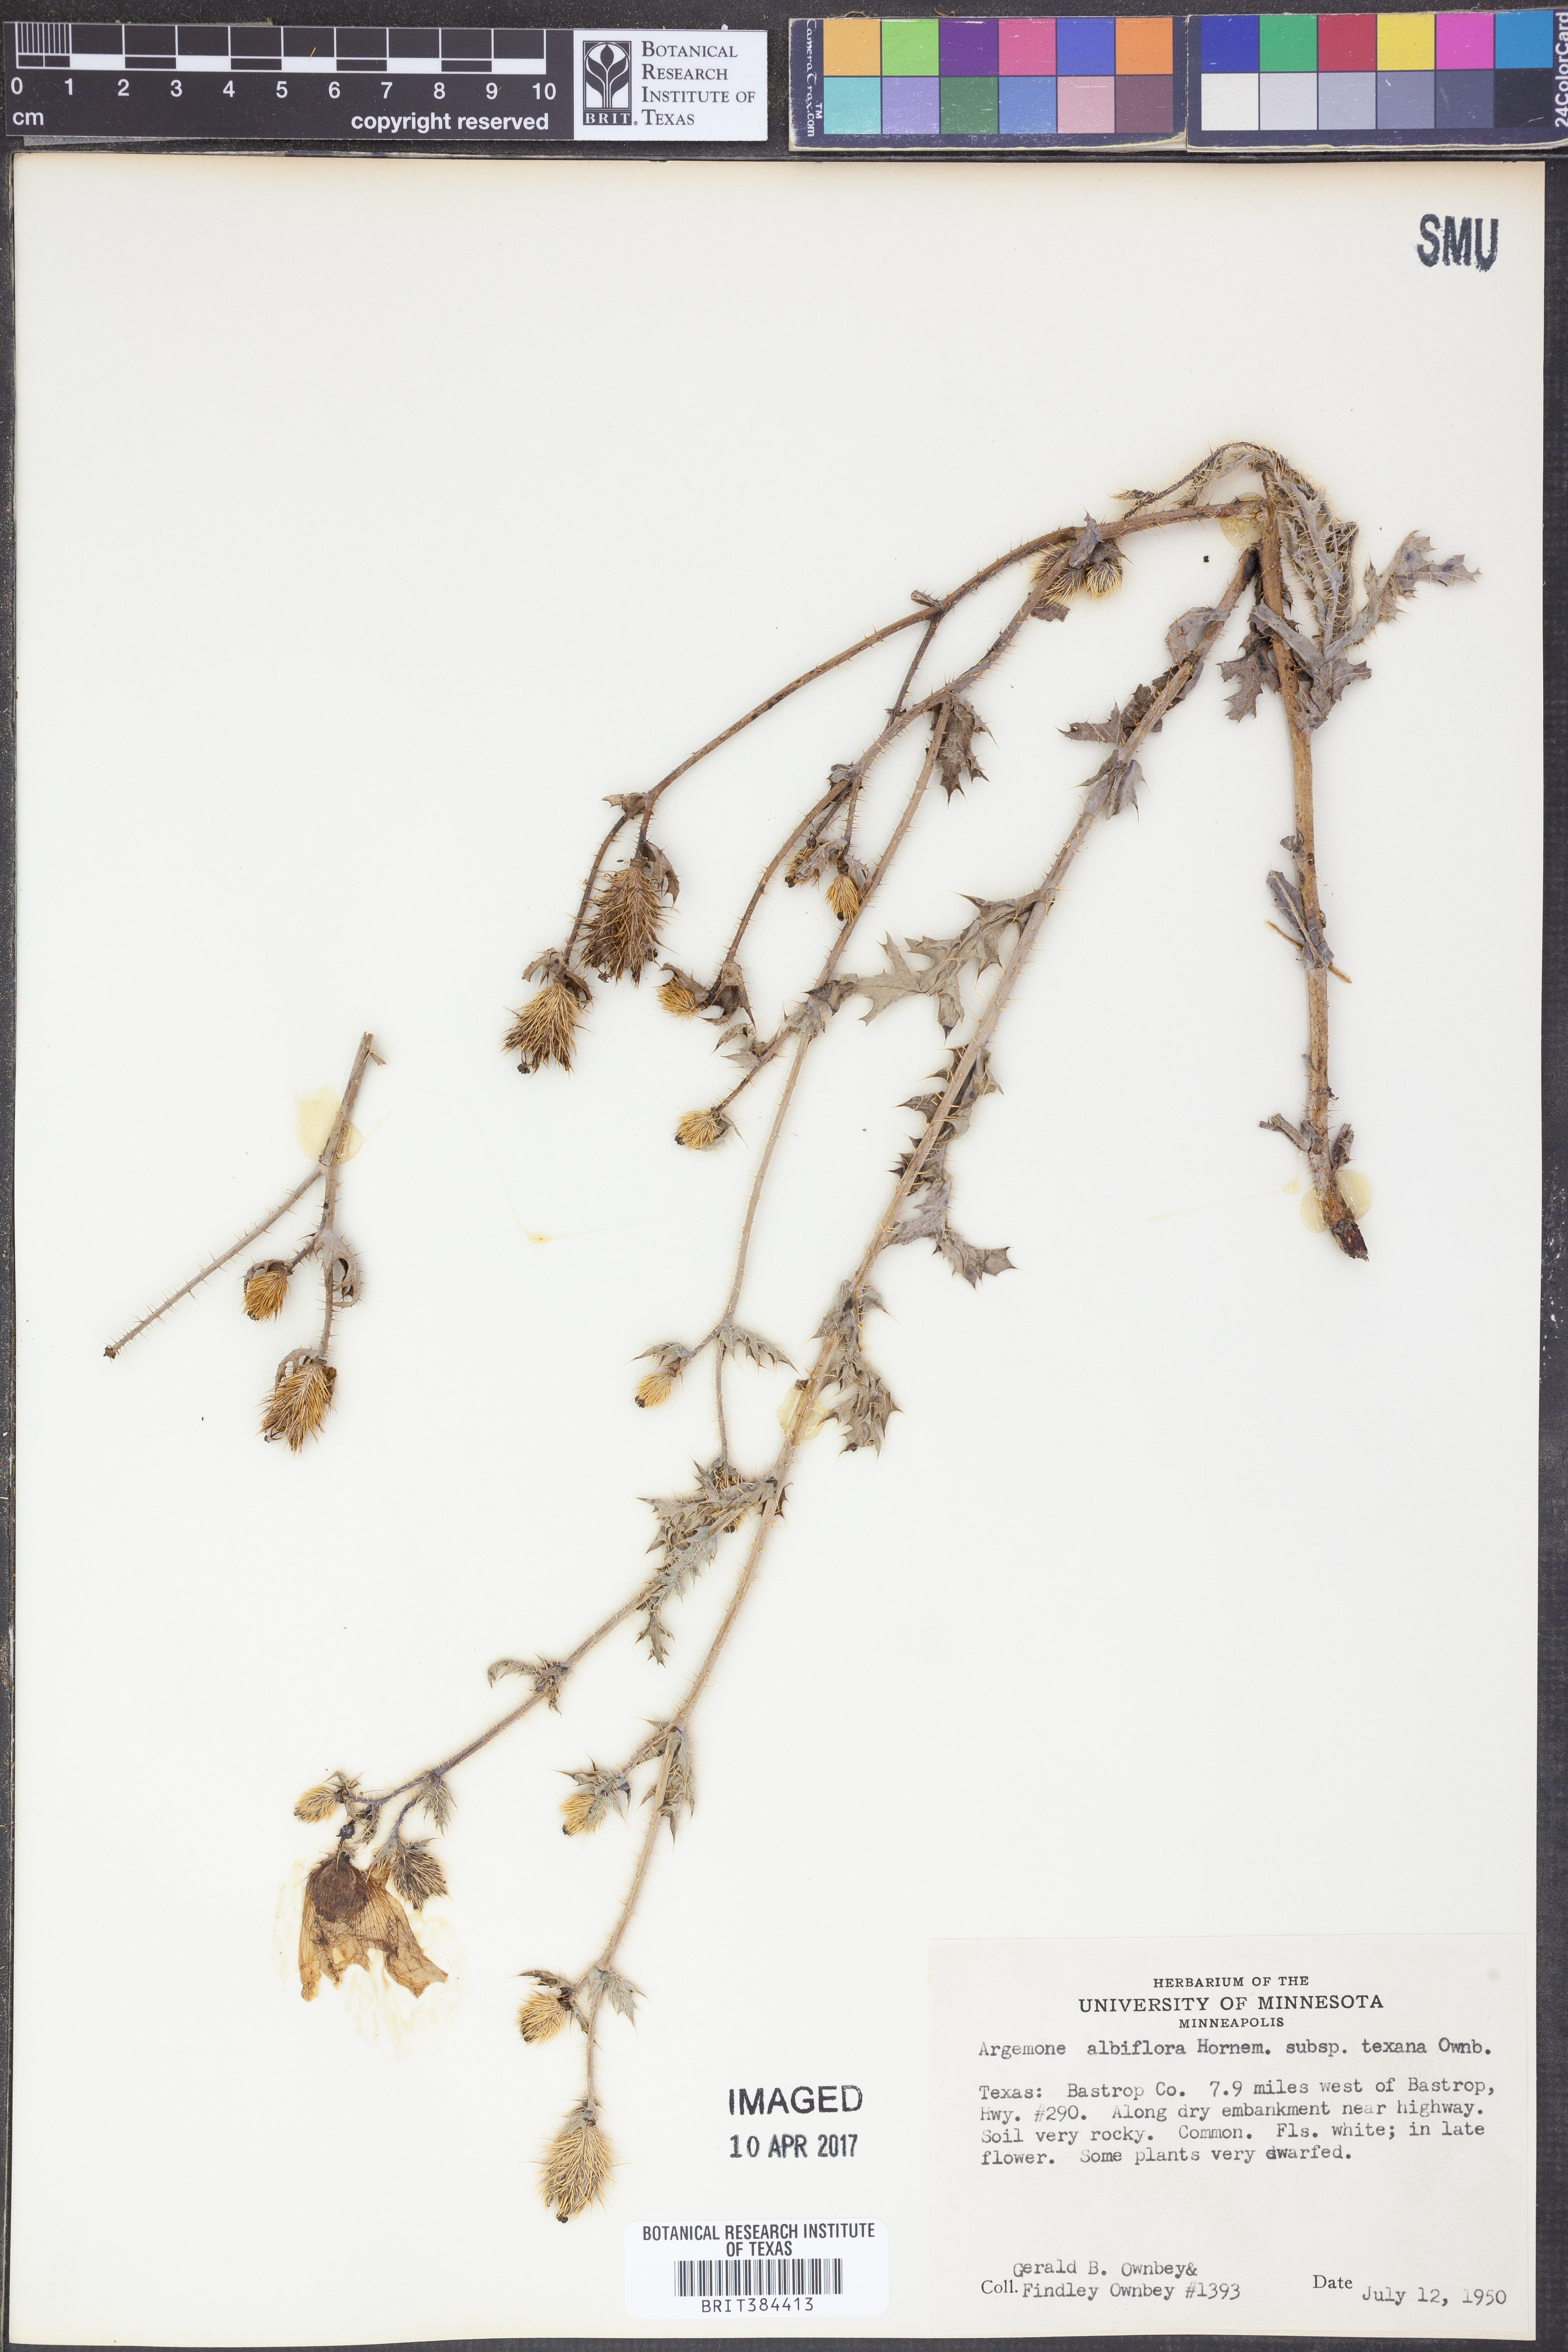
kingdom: Plantae
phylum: Tracheophyta
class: Magnoliopsida
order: Ranunculales
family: Papaveraceae
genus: Argemone
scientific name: Argemone albiflora
